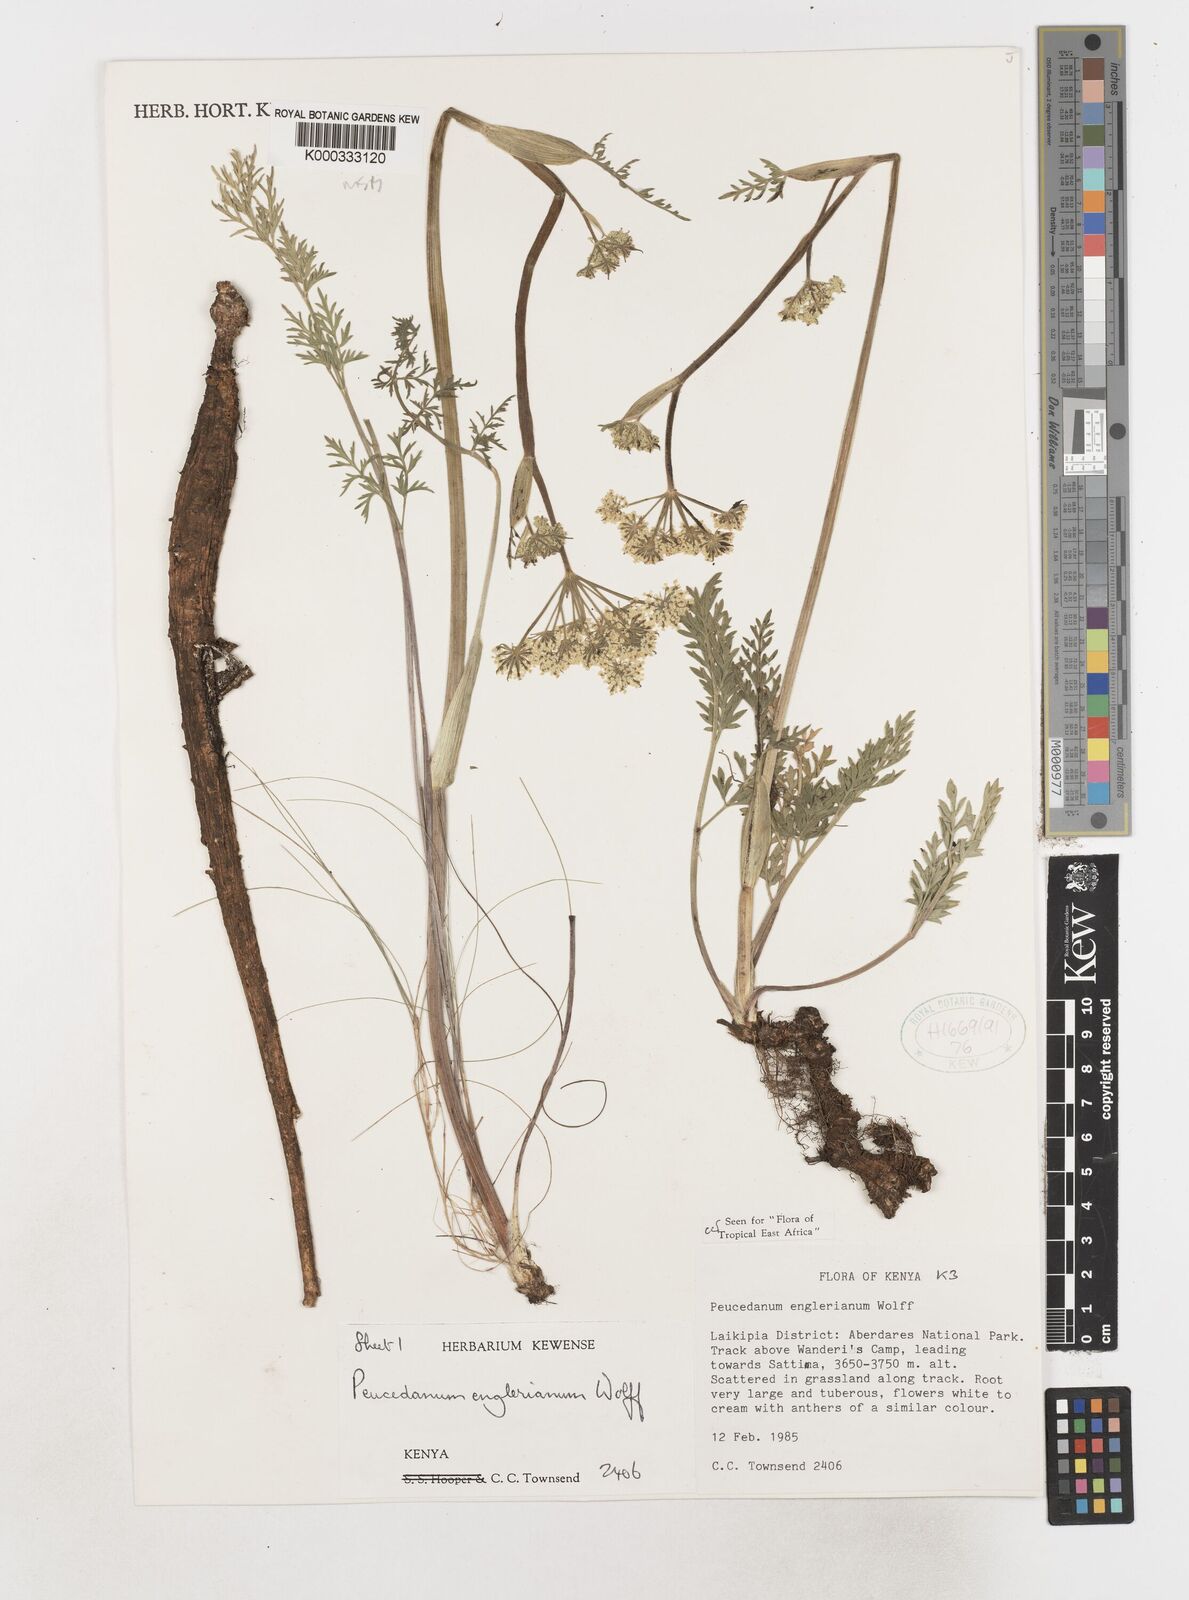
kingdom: Plantae
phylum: Tracheophyta
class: Magnoliopsida
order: Apiales
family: Apiaceae
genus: Oreoschimperella
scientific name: Oreoschimperella
